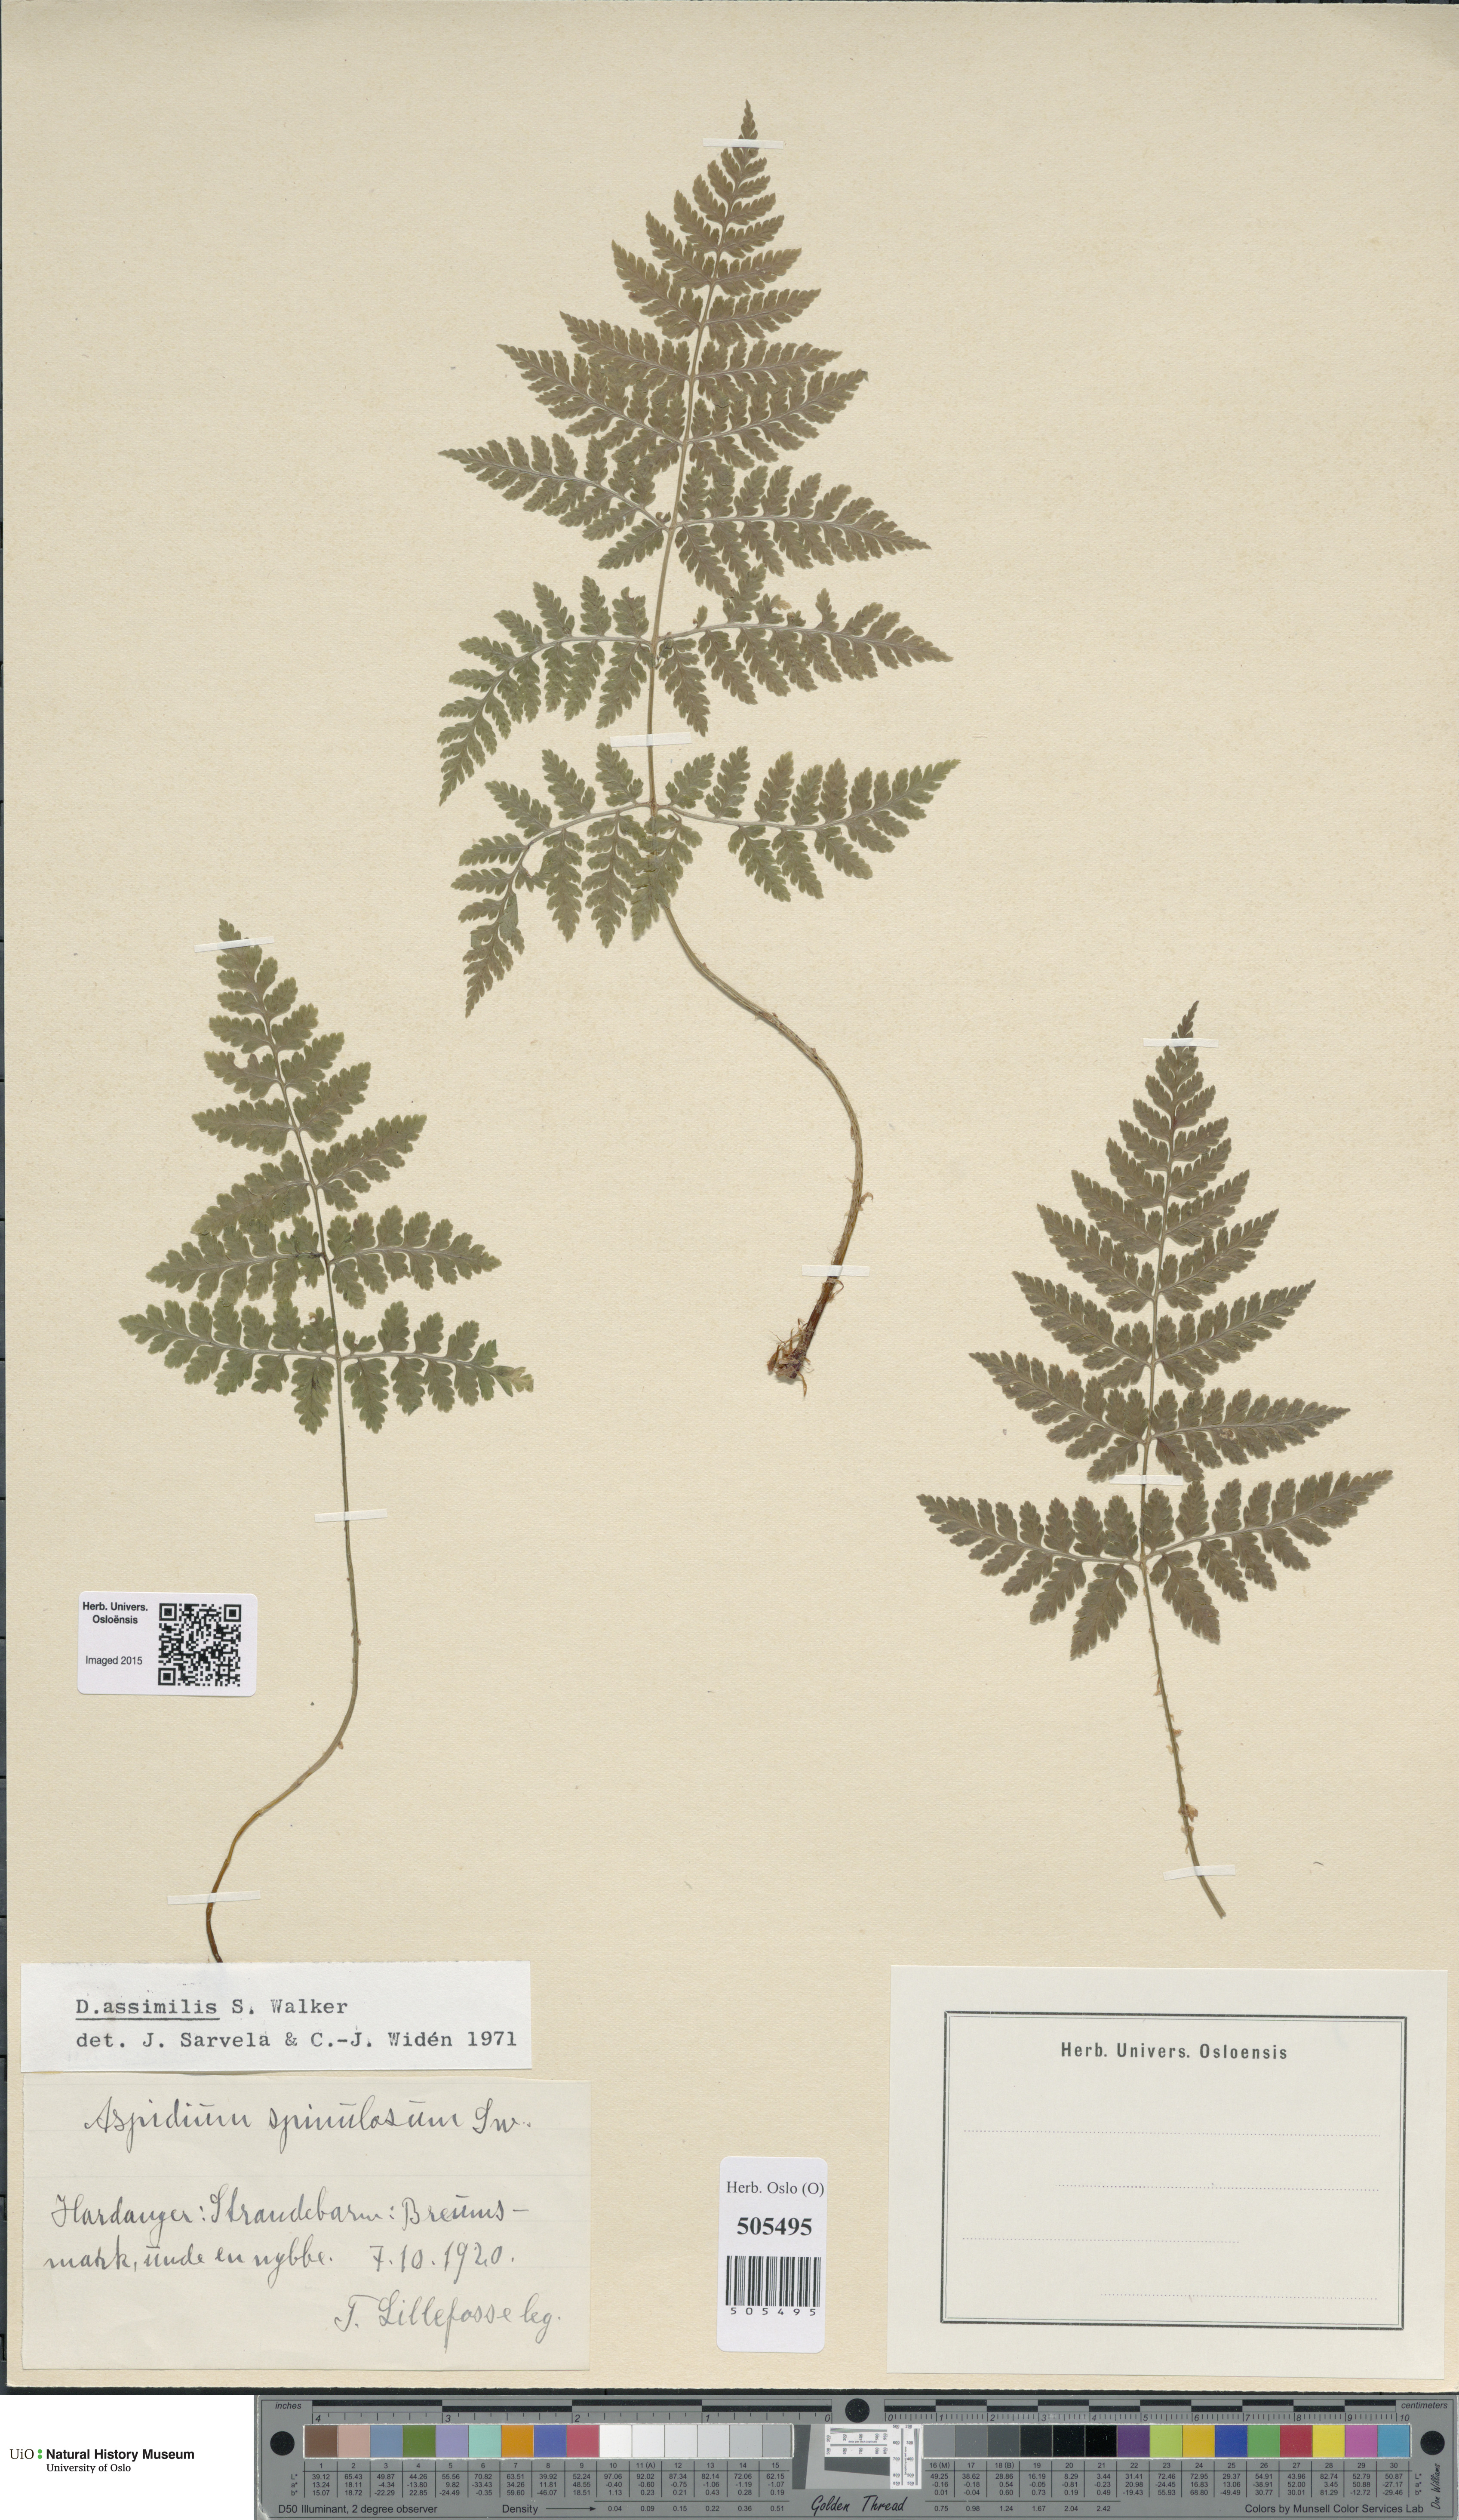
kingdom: Plantae
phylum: Tracheophyta
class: Polypodiopsida
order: Polypodiales
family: Dryopteridaceae
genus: Dryopteris
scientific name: Dryopteris expansa
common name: Northern buckler fern
